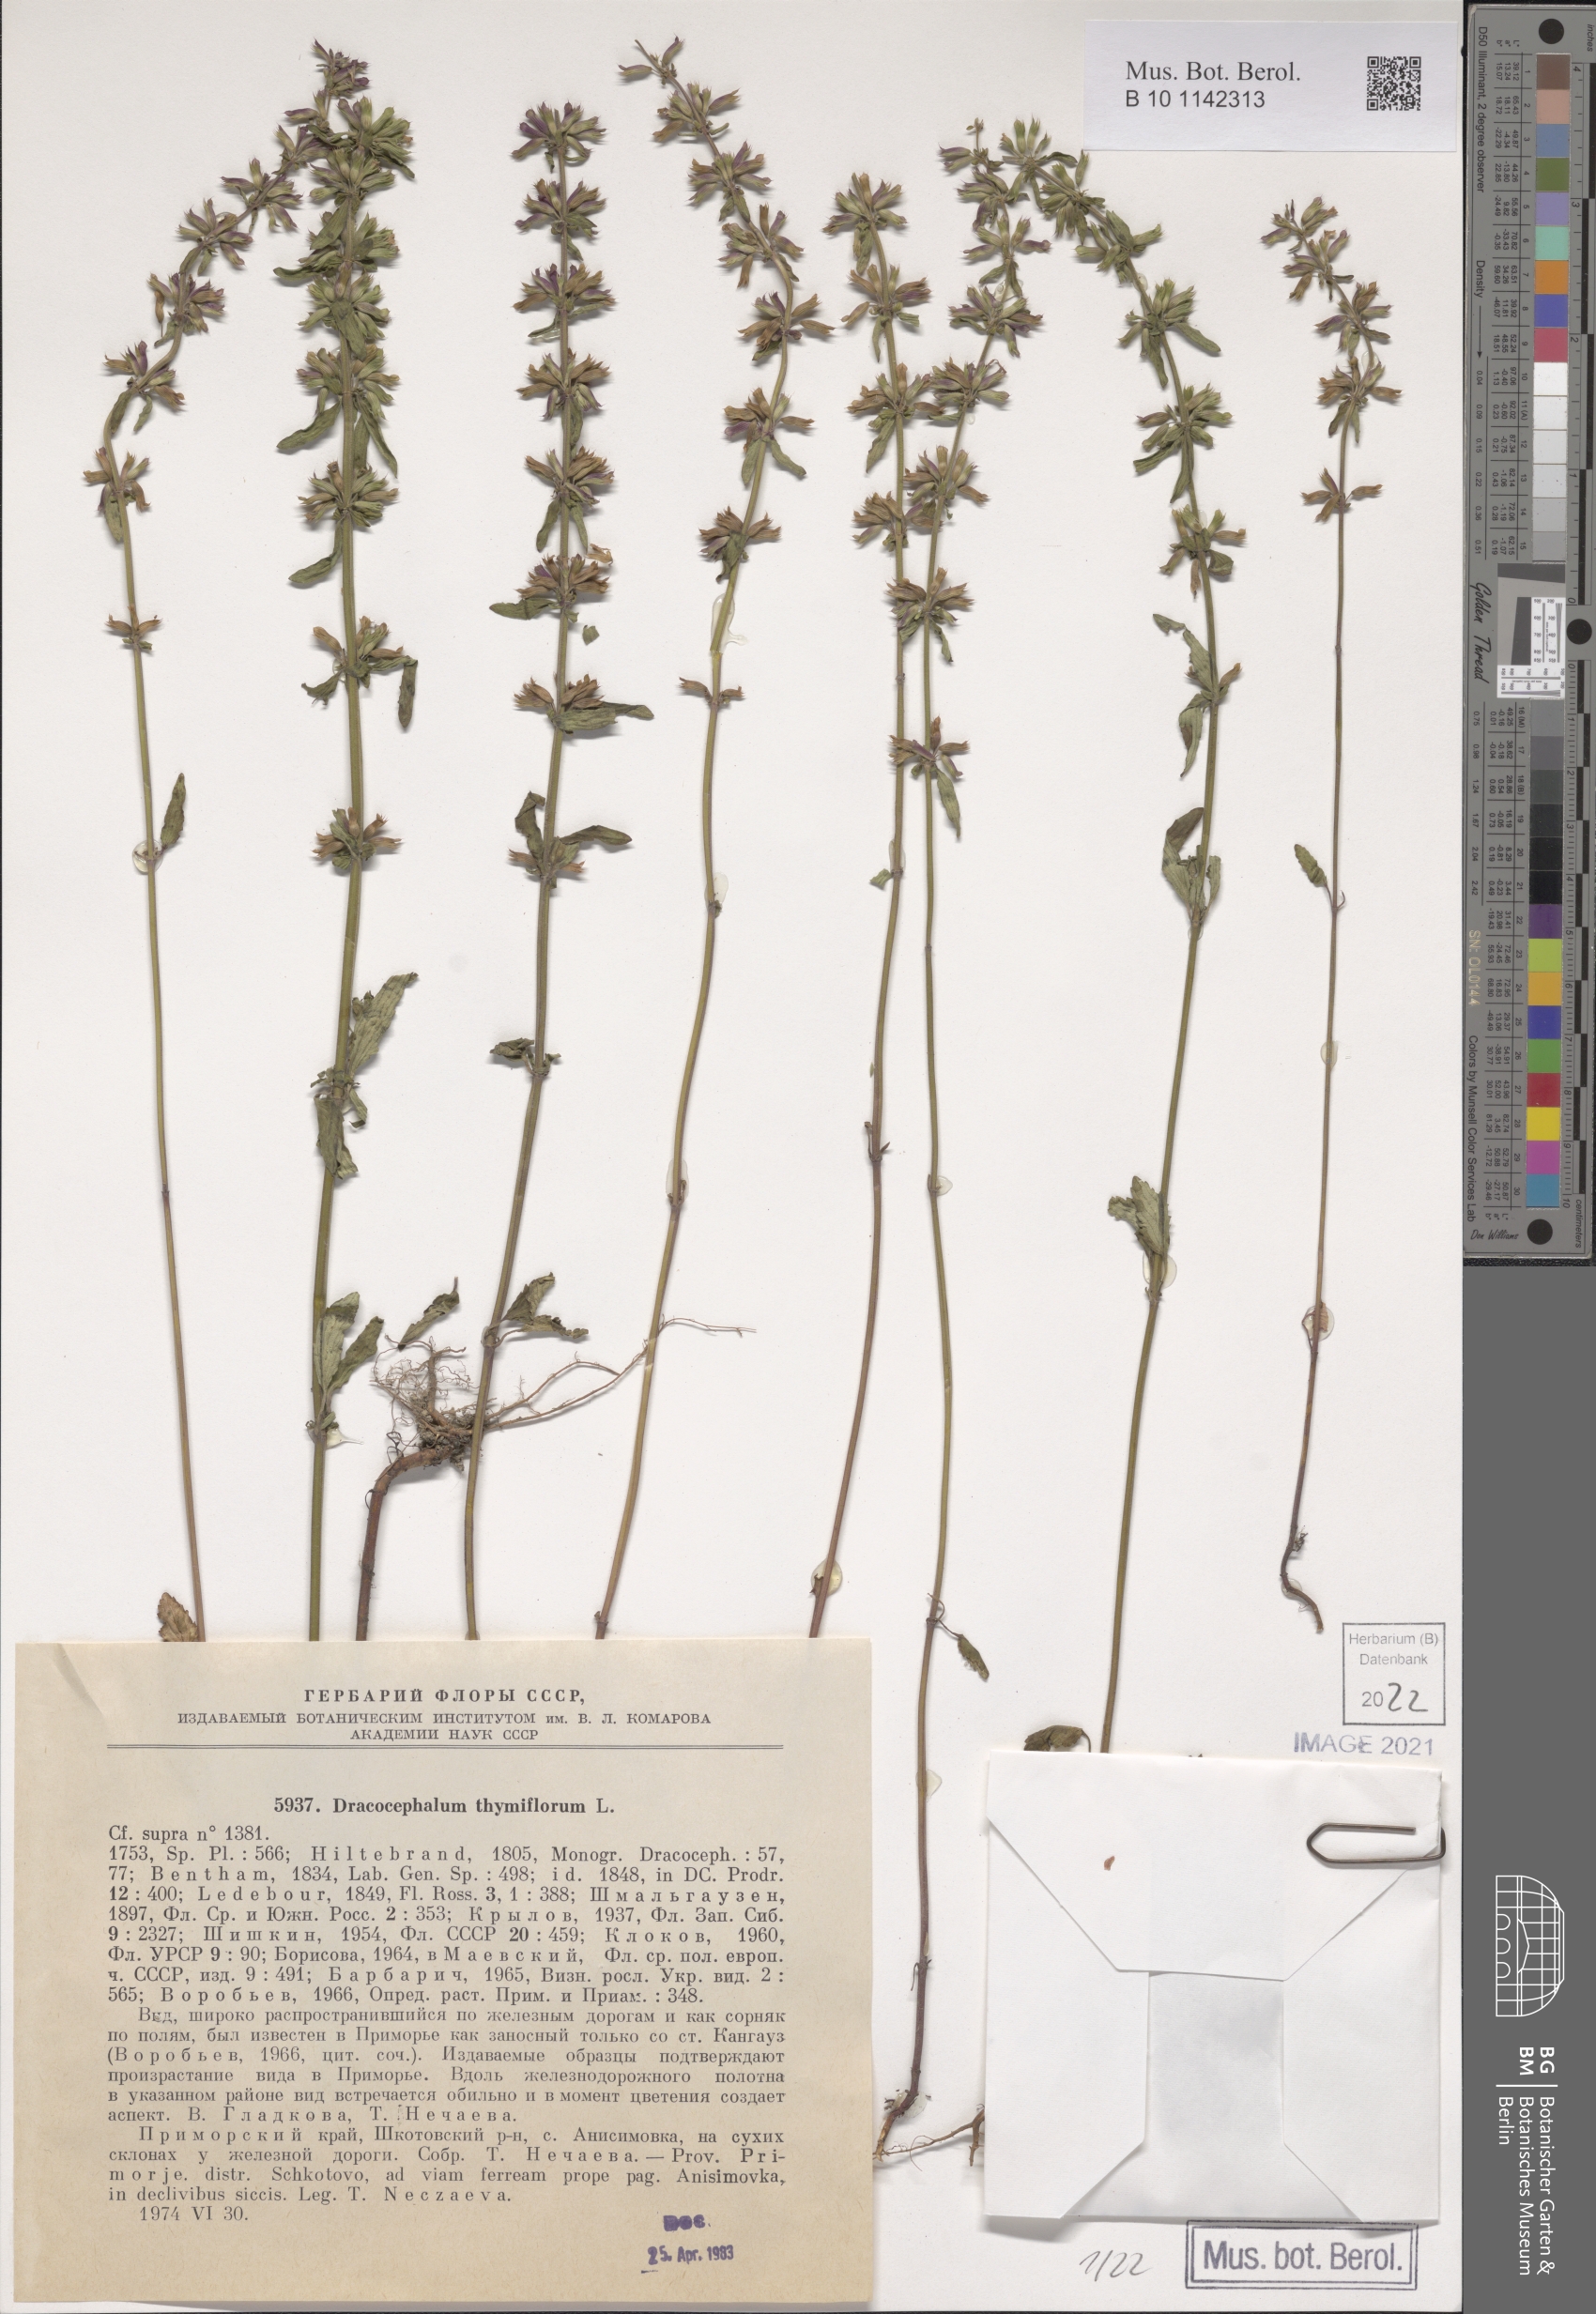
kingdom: Plantae
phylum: Tracheophyta
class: Magnoliopsida
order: Lamiales
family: Lamiaceae
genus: Dracocephalum
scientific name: Dracocephalum thymiflorum
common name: Thymeleaf dragonhead
